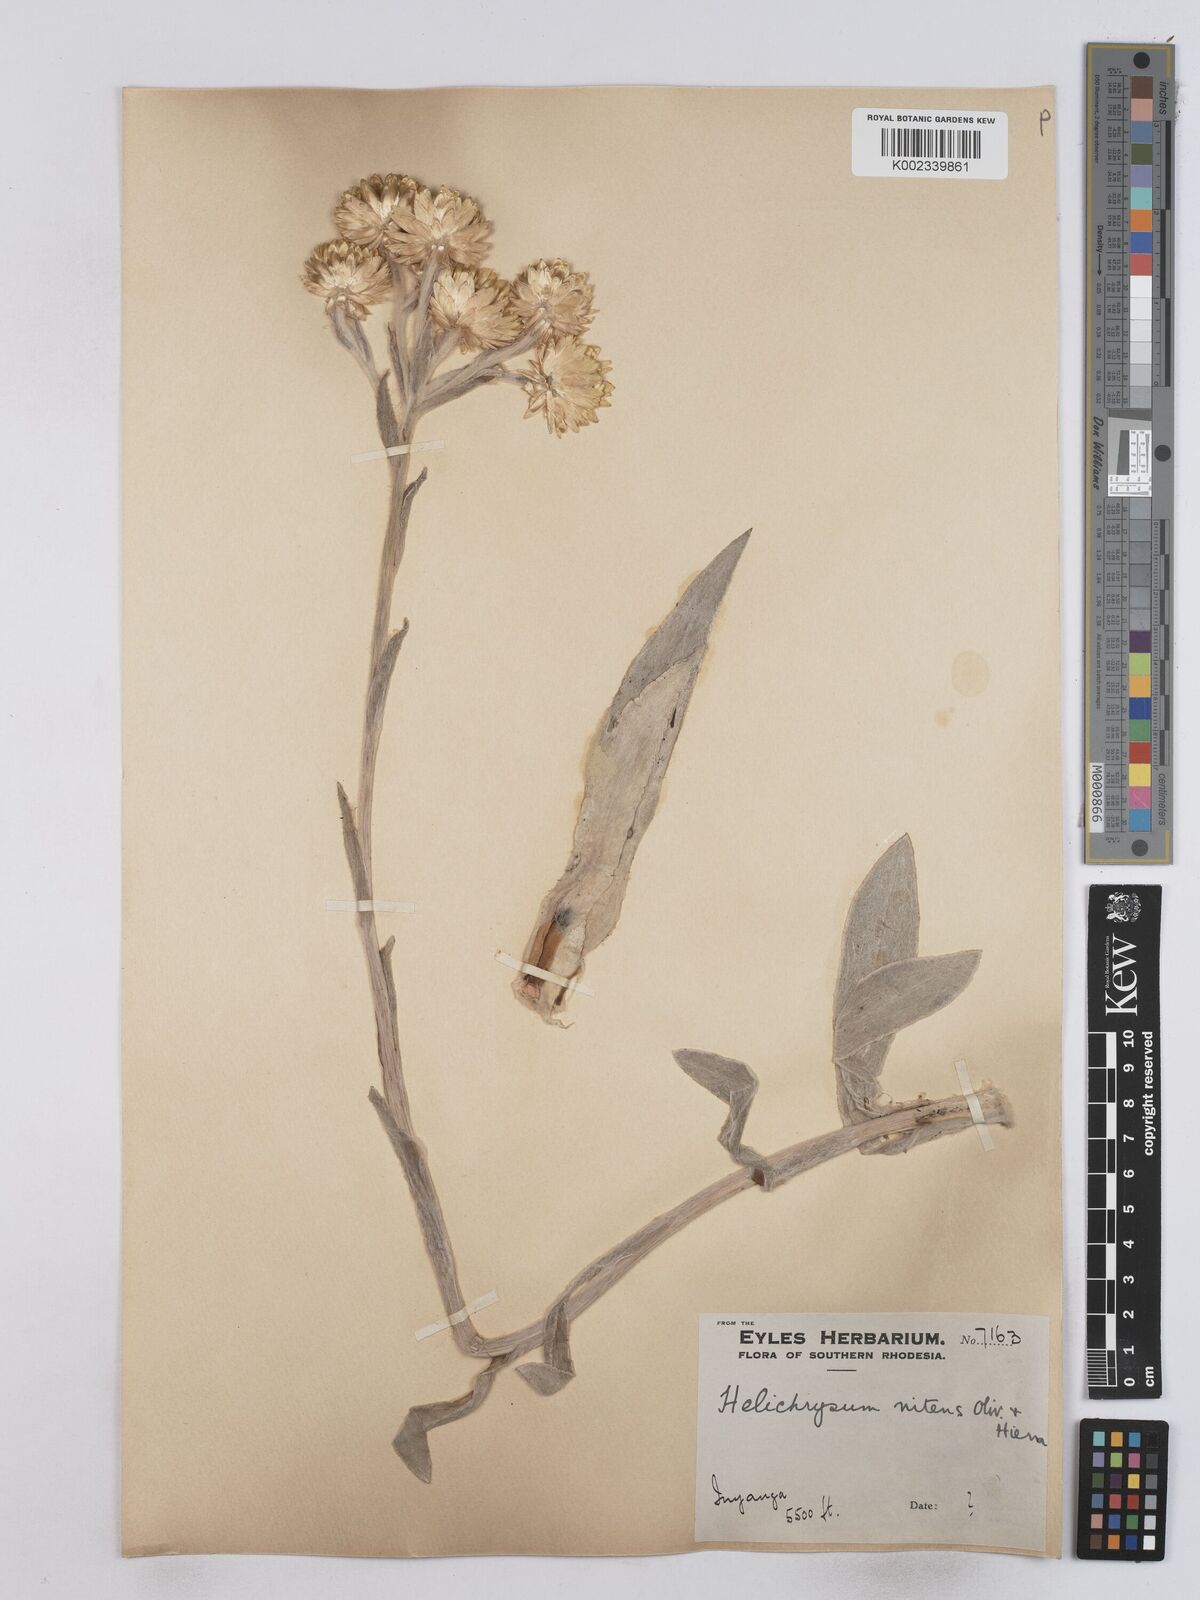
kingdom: Plantae
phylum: Tracheophyta
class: Magnoliopsida
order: Asterales
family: Asteraceae
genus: Helichrysum
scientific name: Helichrysum nitens
